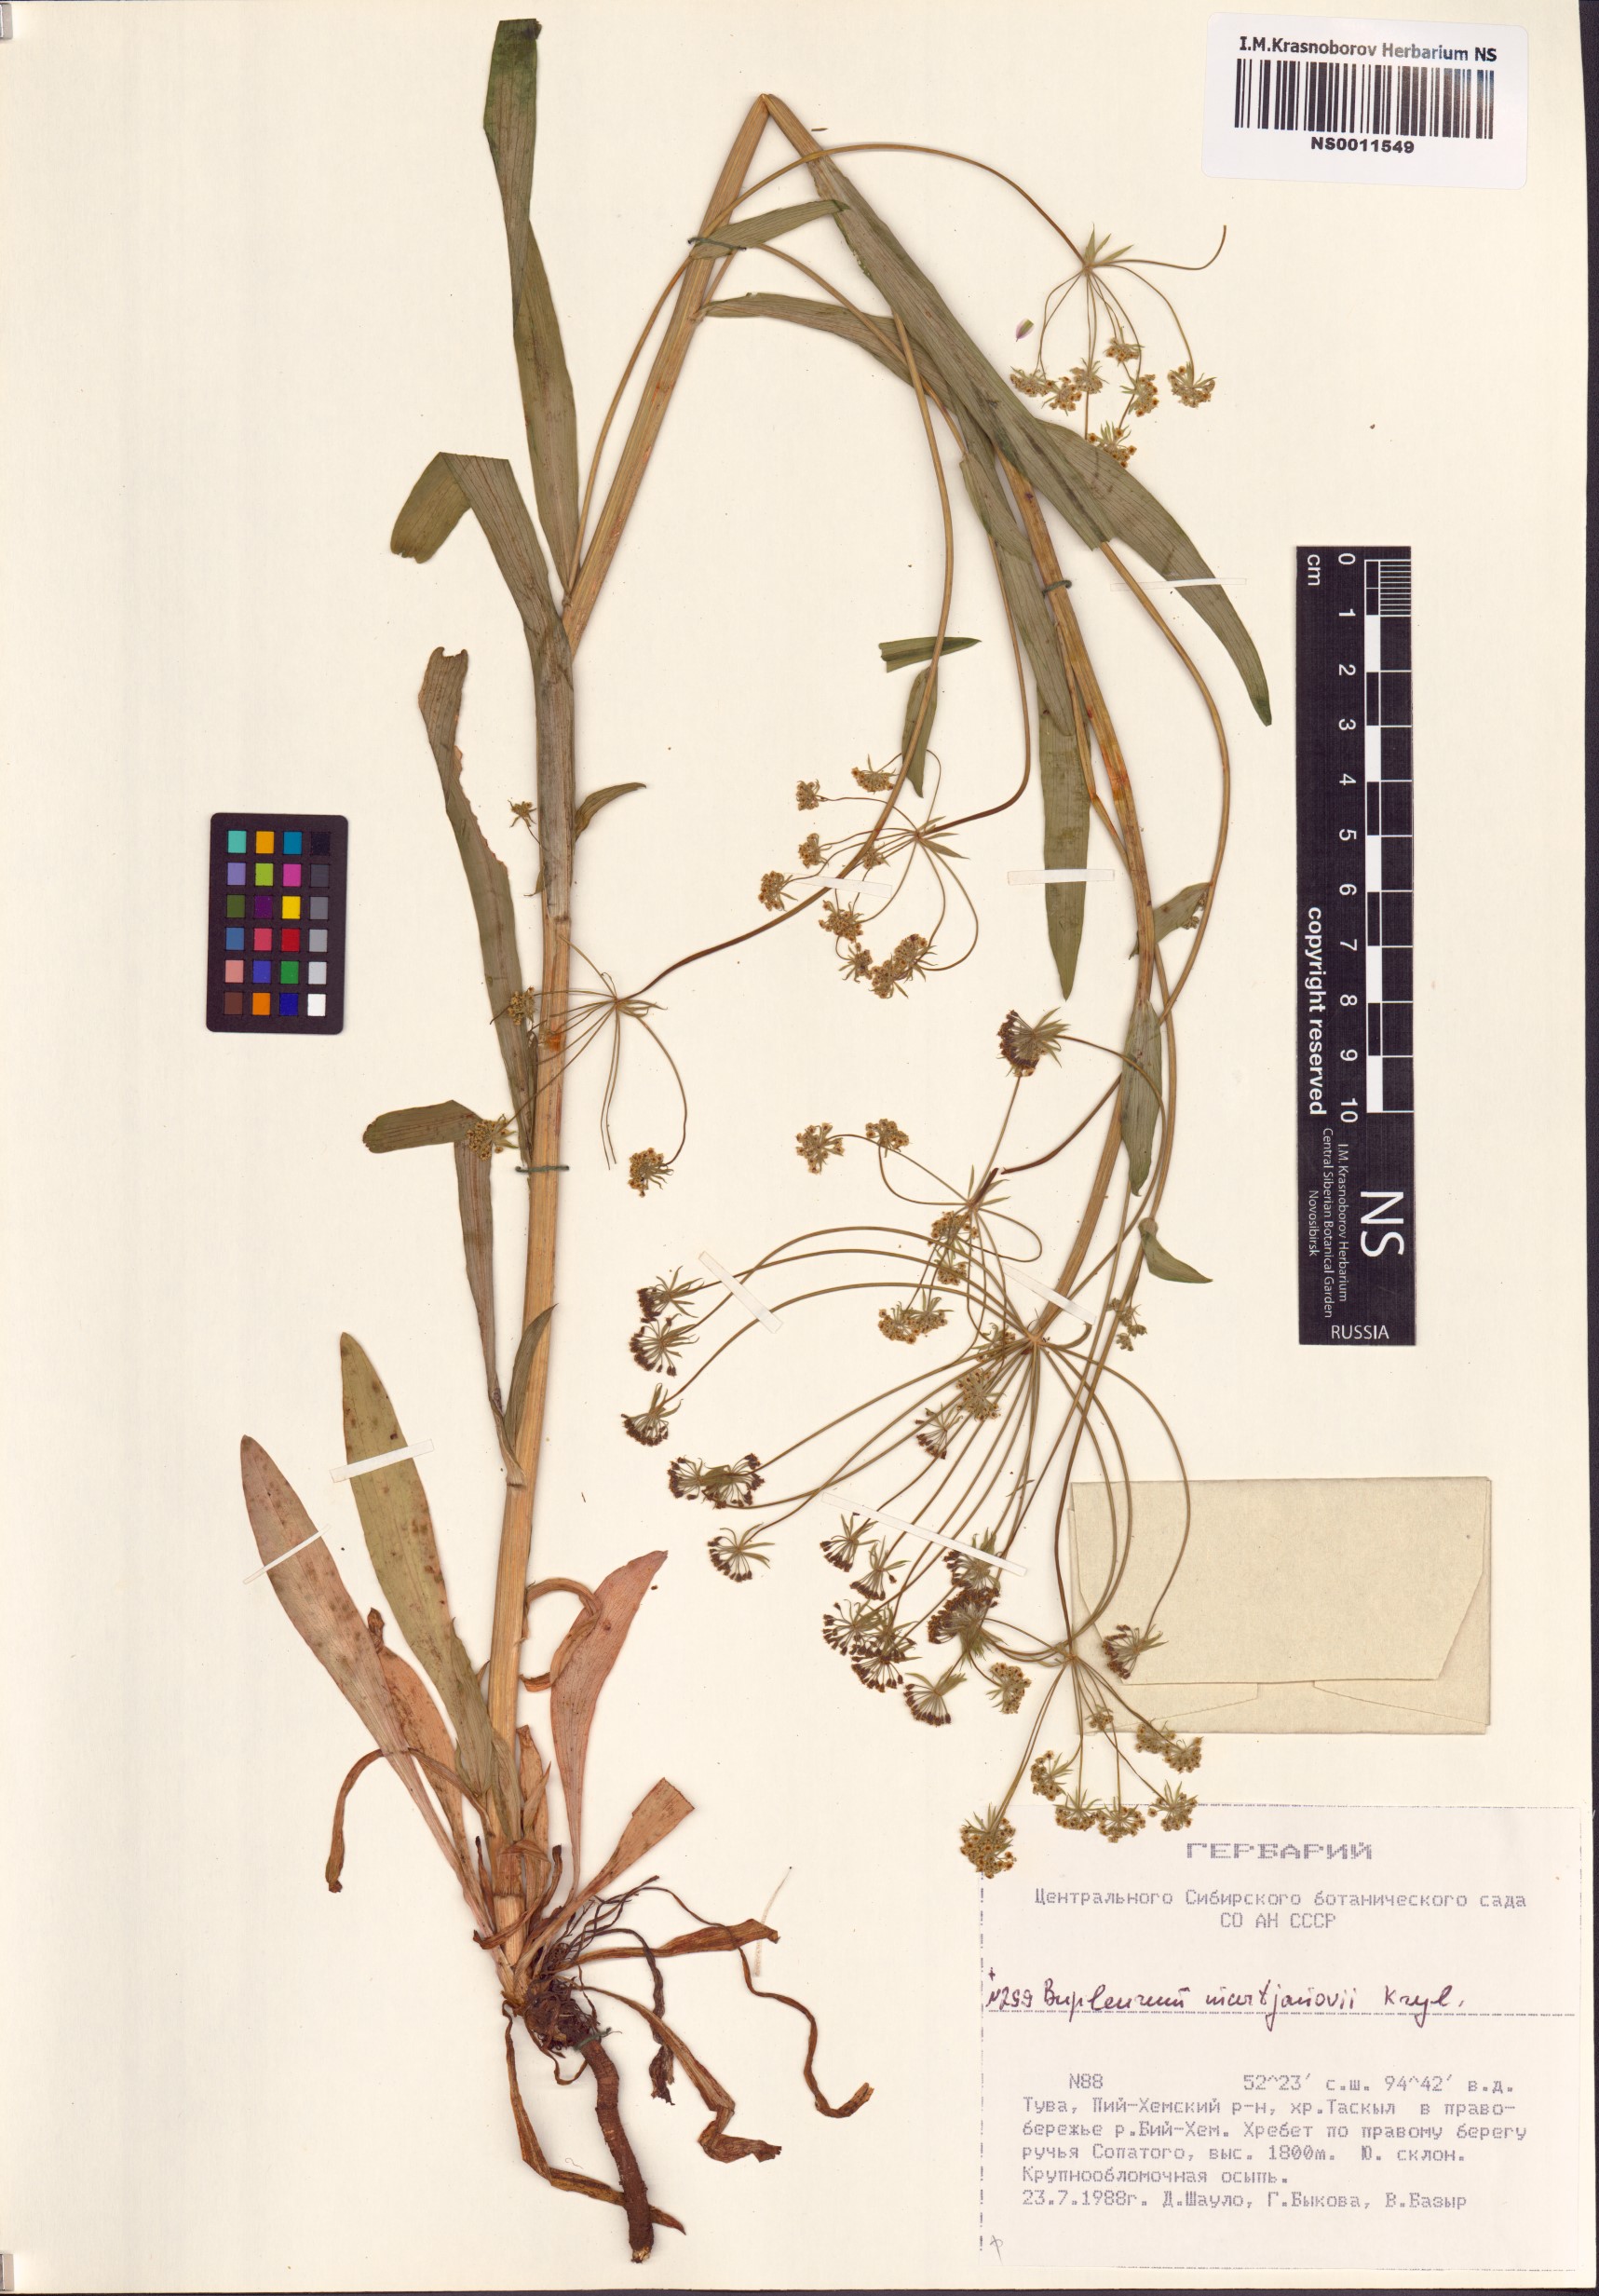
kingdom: Plantae
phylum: Tracheophyta
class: Magnoliopsida
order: Apiales
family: Apiaceae
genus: Bupleurum
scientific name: Bupleurum martjanovii
